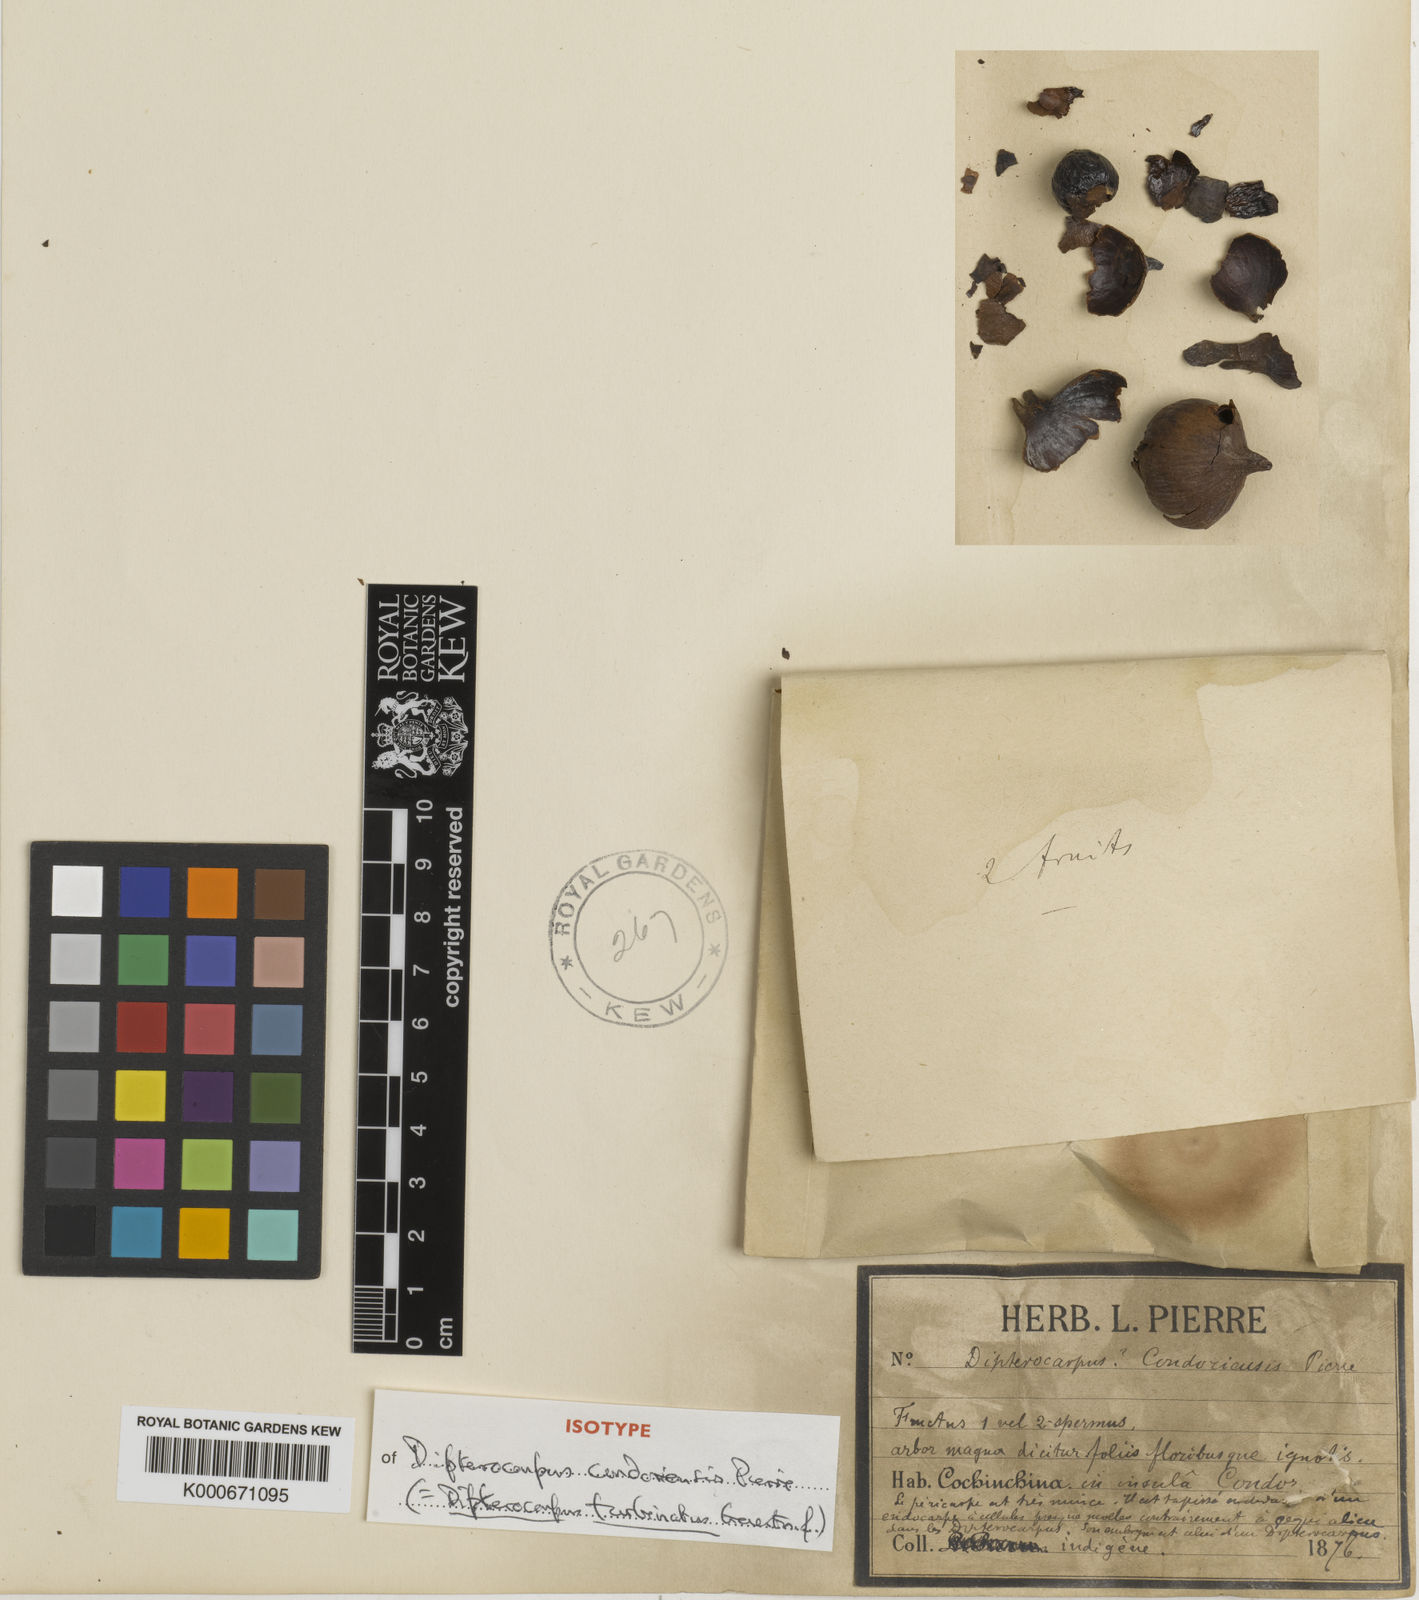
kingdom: Plantae
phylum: Tracheophyta
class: Magnoliopsida
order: Malvales
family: Dipterocarpaceae
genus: Dipterocarpus
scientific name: Dipterocarpus turbinatus
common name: East indian copaiba balsam
